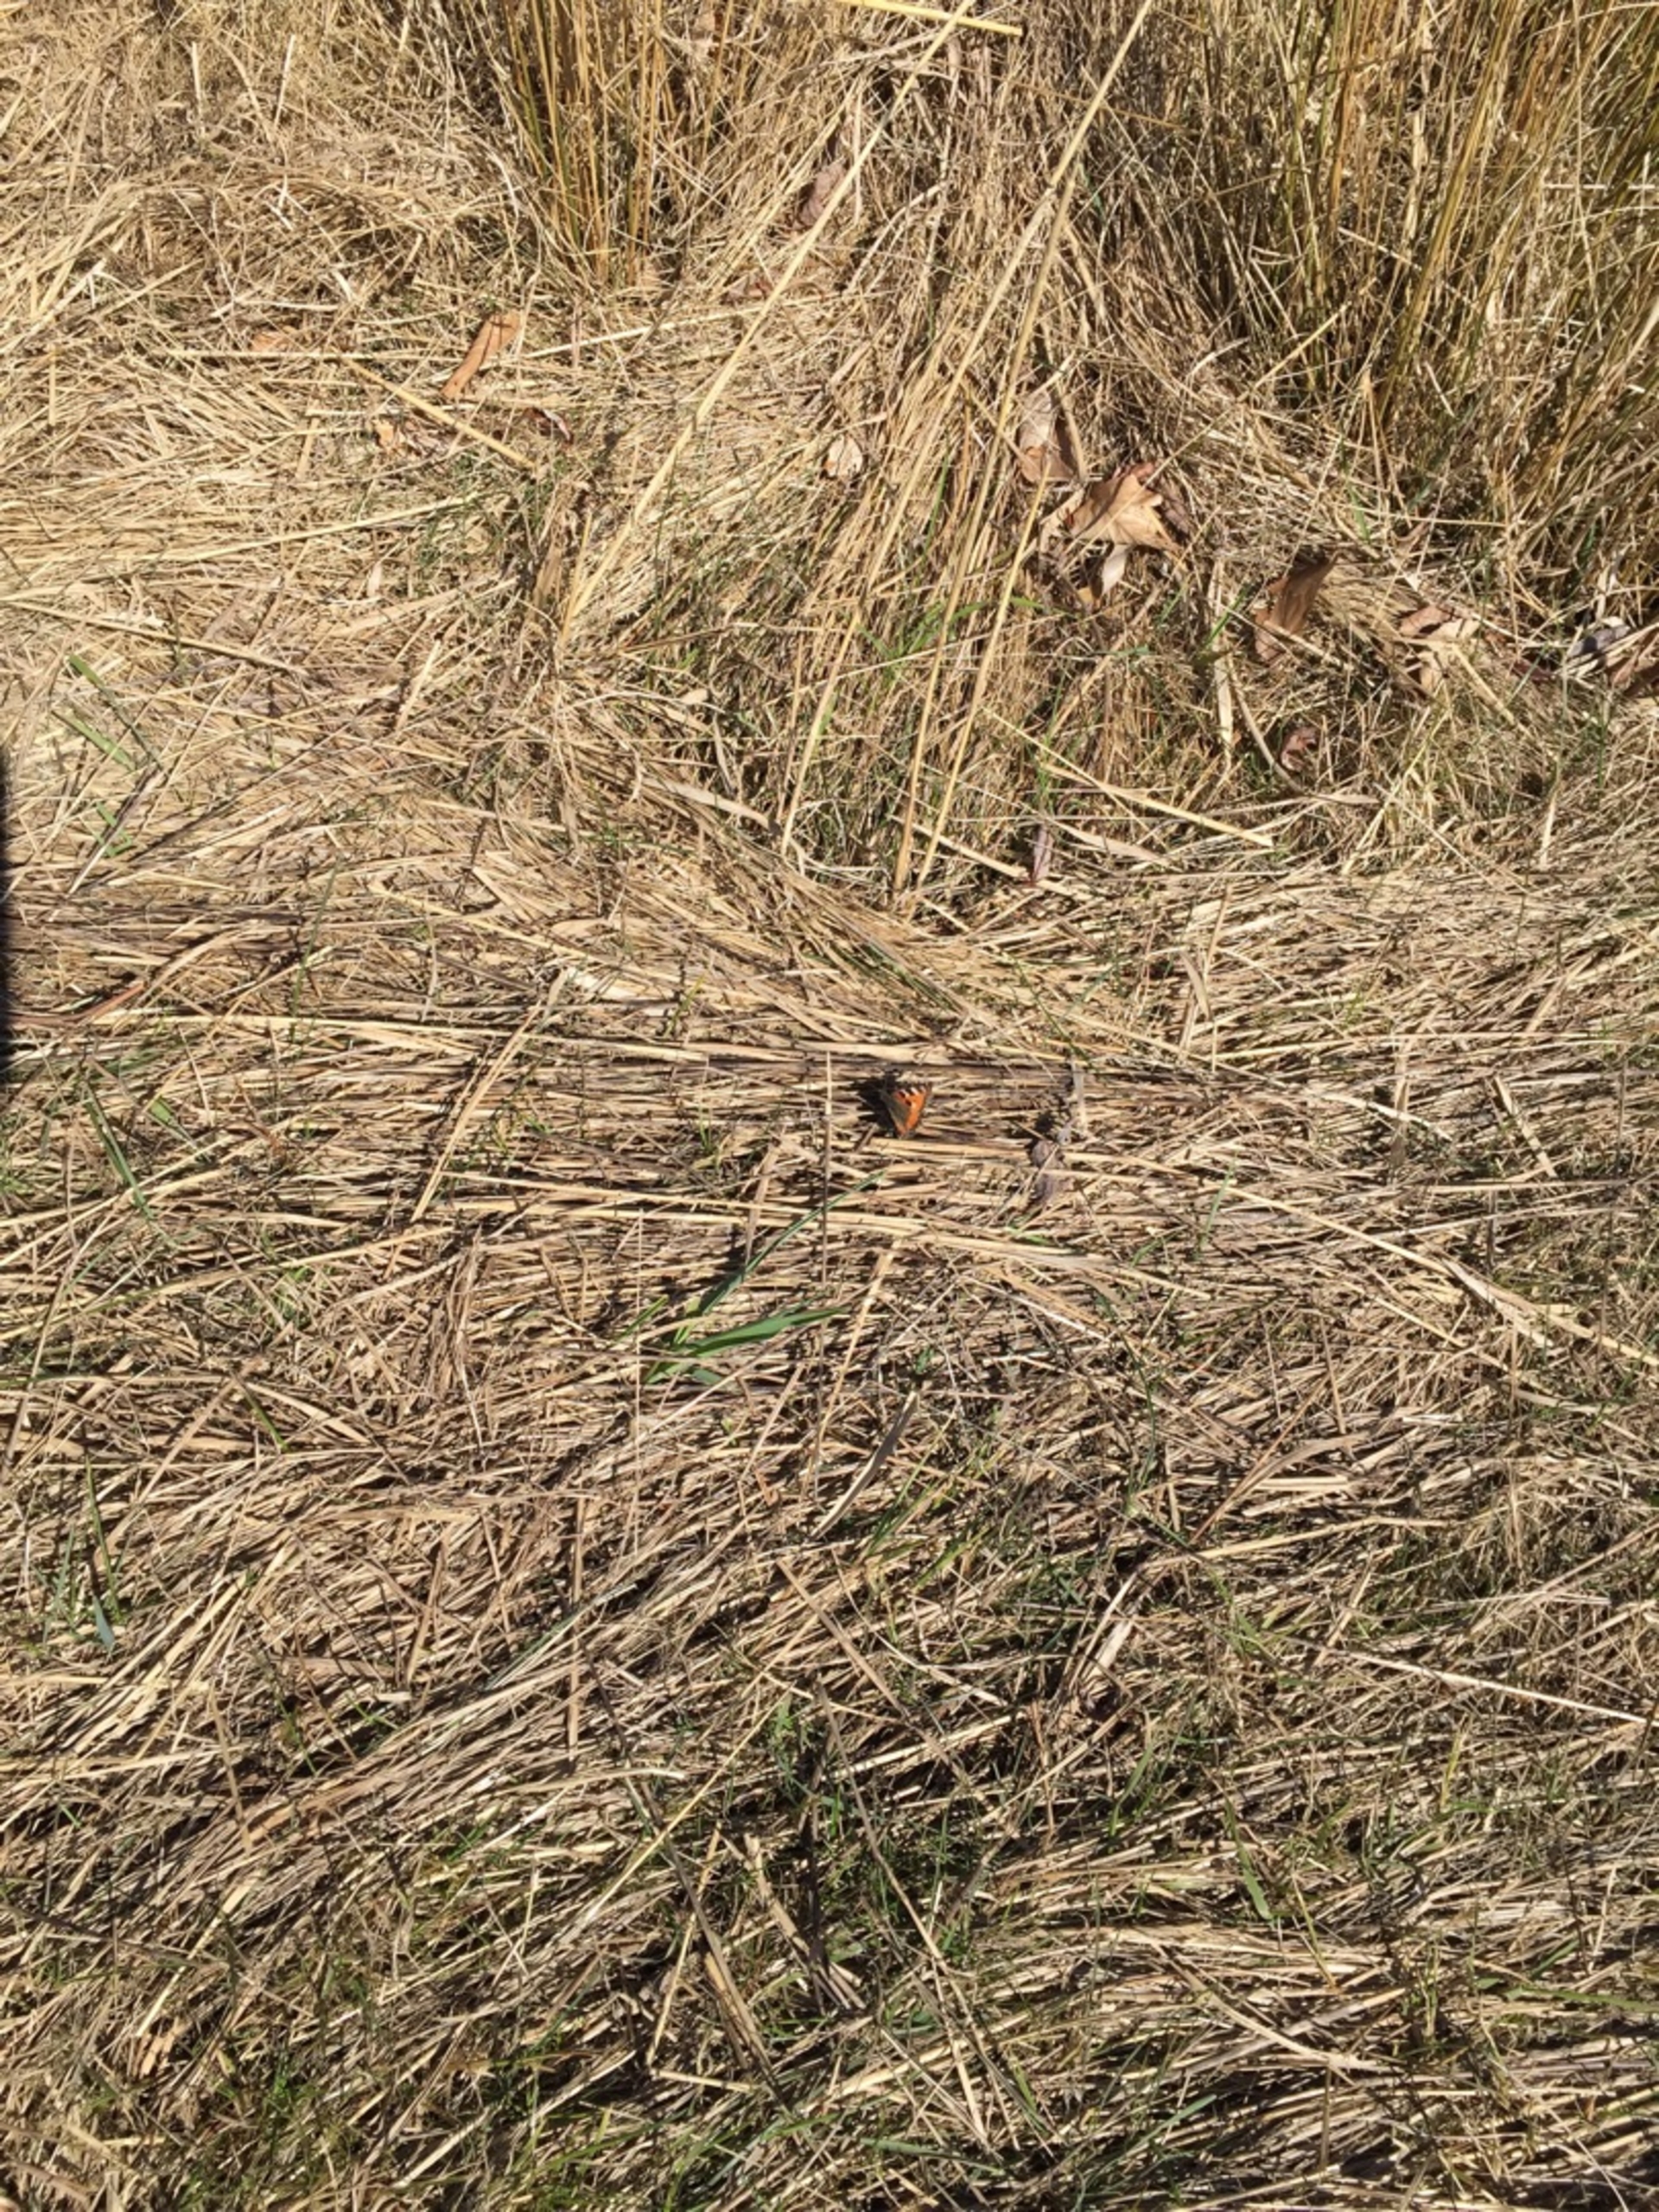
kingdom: Animalia
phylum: Arthropoda
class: Insecta
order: Lepidoptera
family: Nymphalidae
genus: Aglais
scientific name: Aglais urticae
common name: Nældens takvinge
